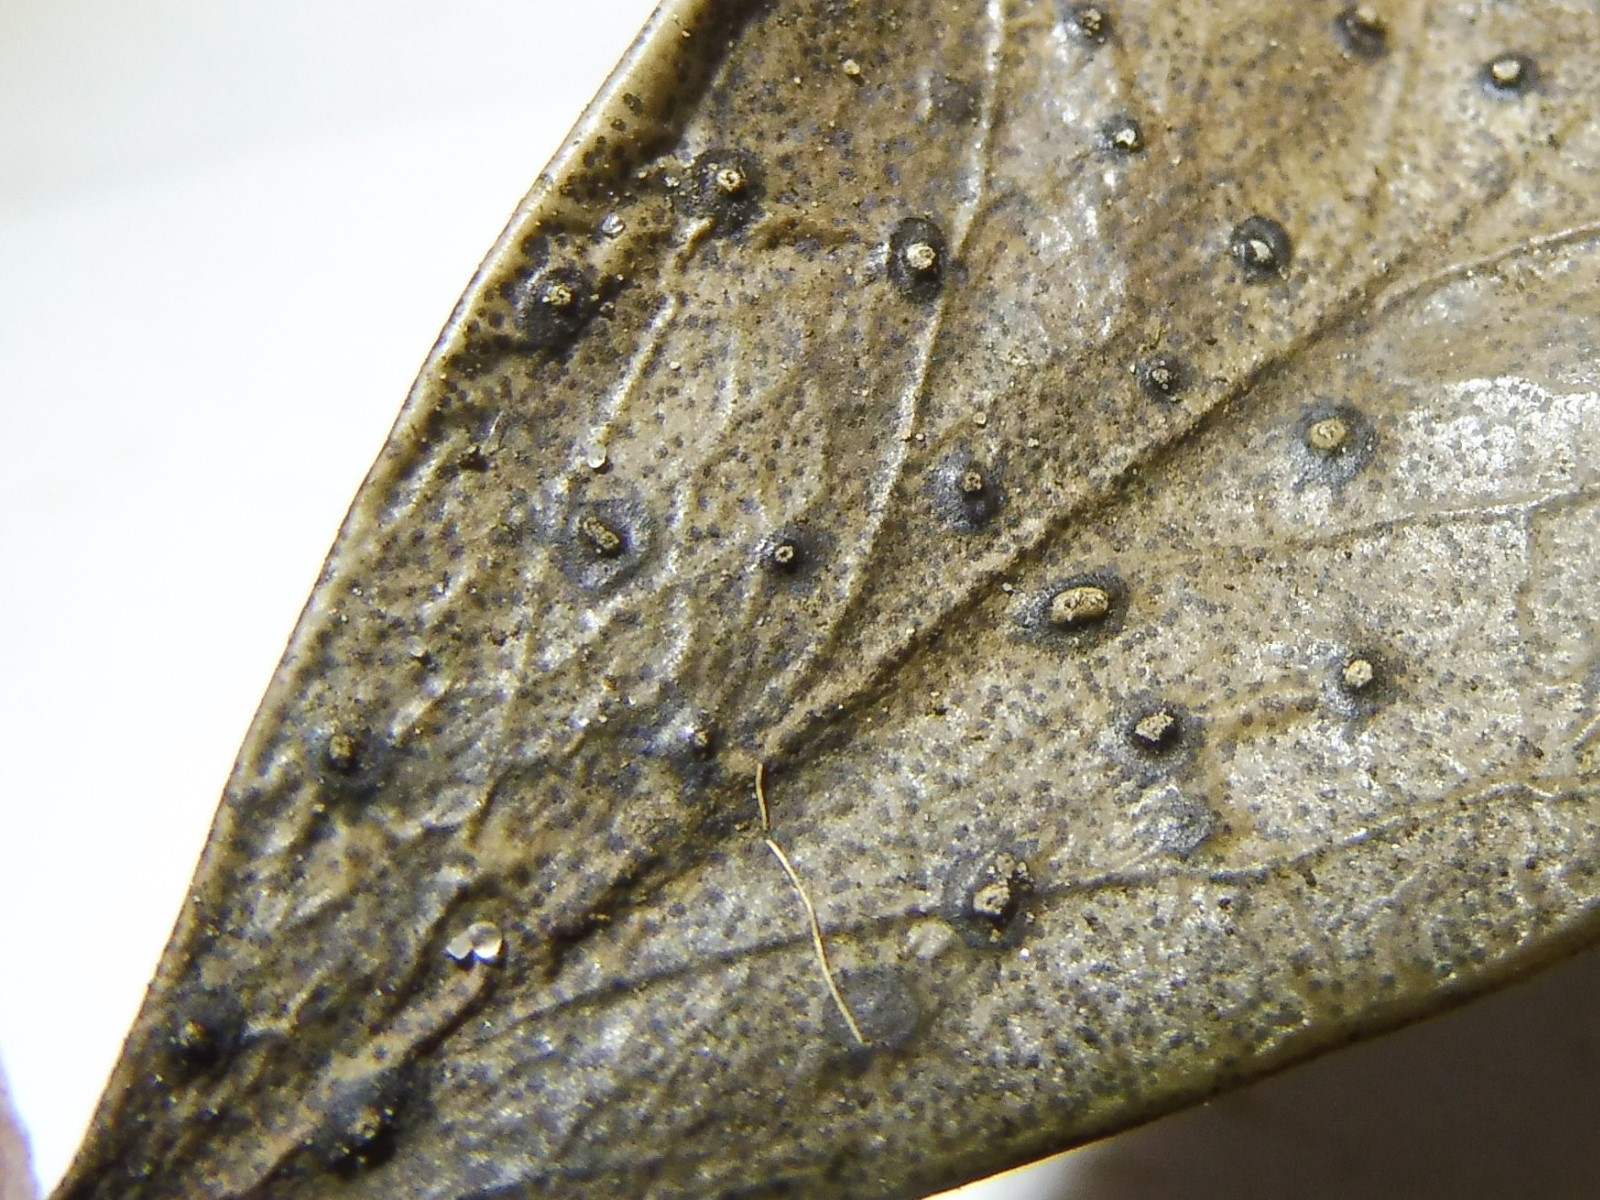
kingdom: Fungi
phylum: Ascomycota
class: Leotiomycetes
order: Phacidiales
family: Phacidiaceae
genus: Phacidium
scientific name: Phacidium lauri
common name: kristtorn-tandskive
